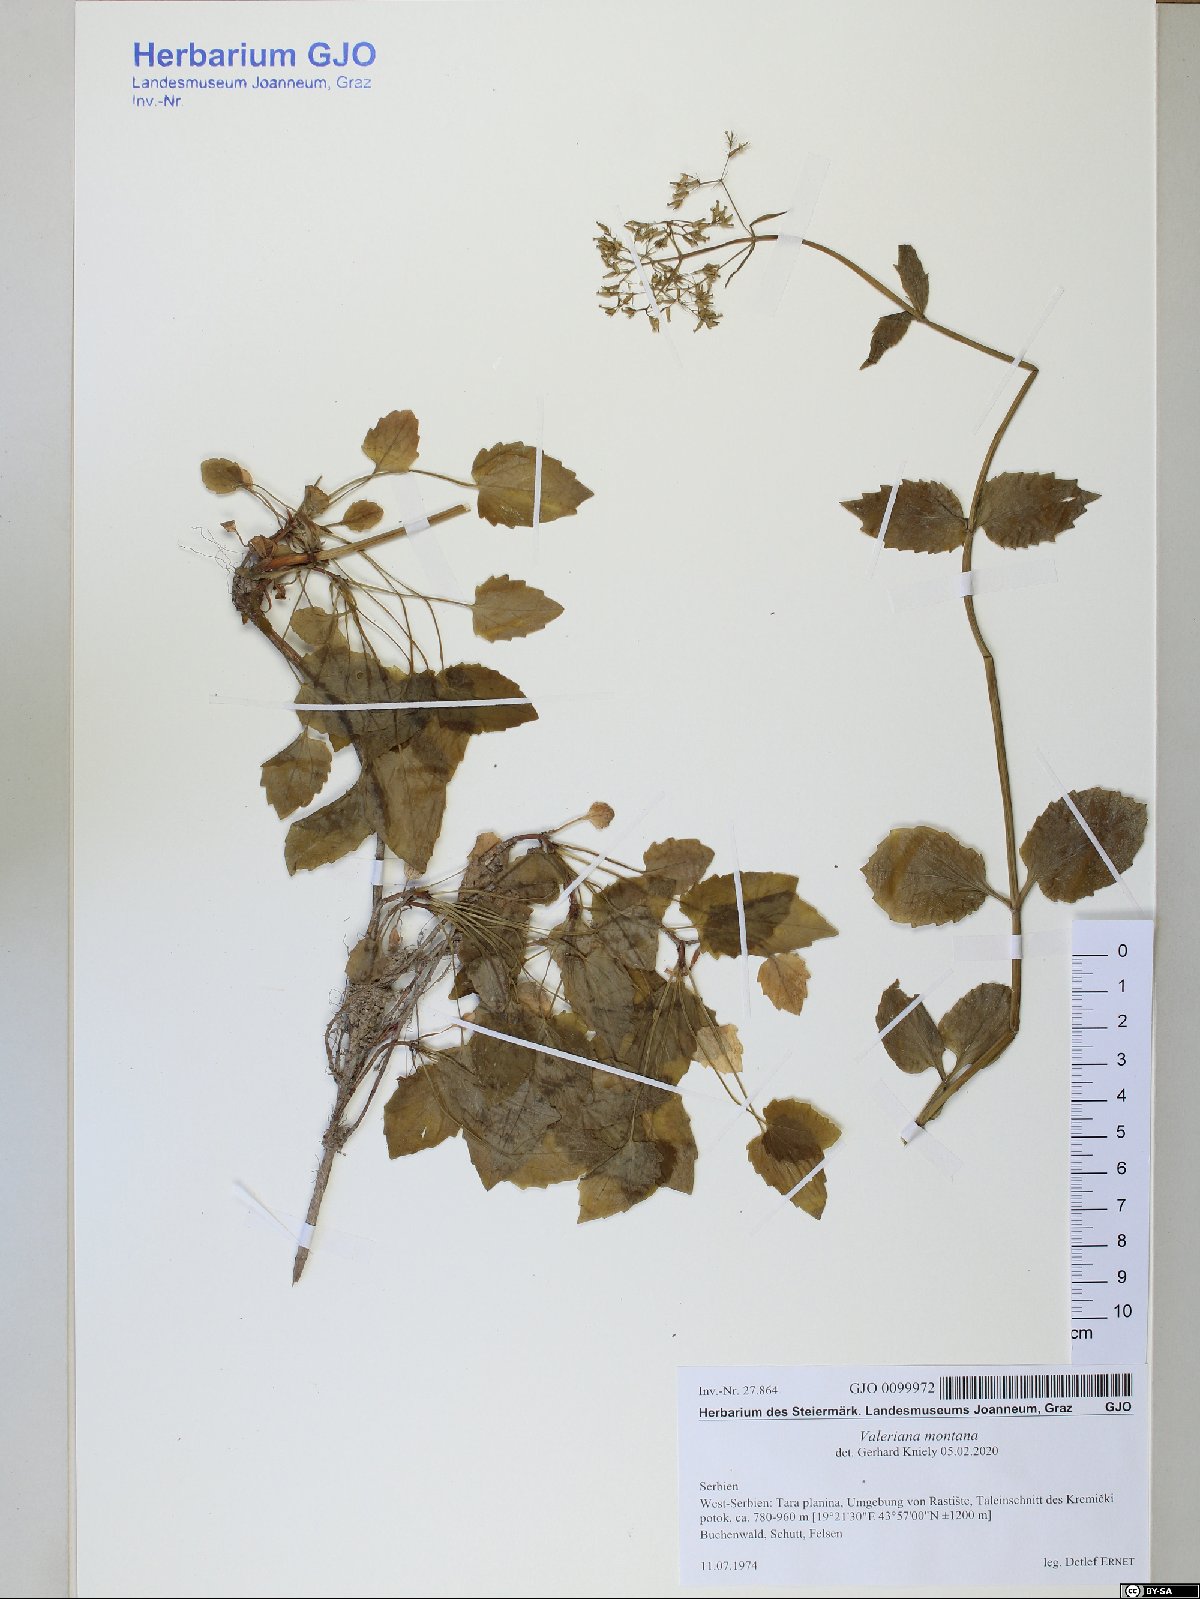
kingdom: Plantae
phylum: Tracheophyta
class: Magnoliopsida
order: Dipsacales
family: Caprifoliaceae
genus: Valeriana
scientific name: Valeriana montana
